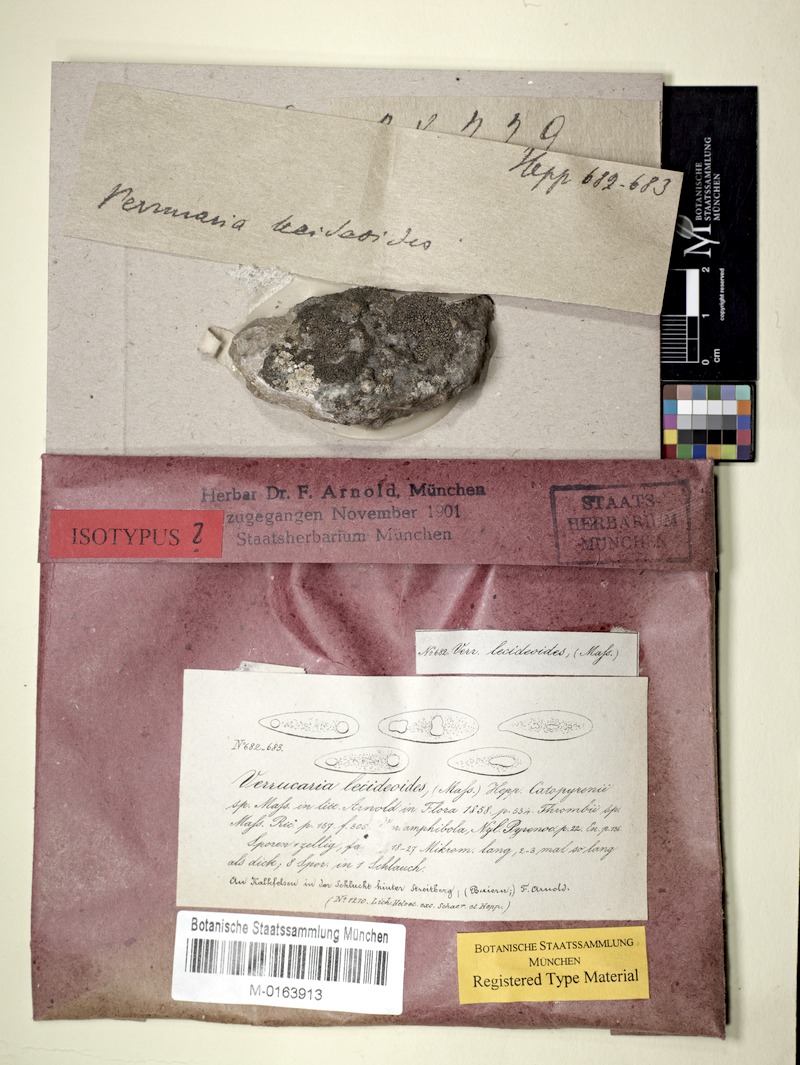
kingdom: Fungi
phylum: Ascomycota
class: Eurotiomycetes
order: Verrucariales
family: Verrucariaceae
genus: Verruculopsis
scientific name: Verruculopsis
